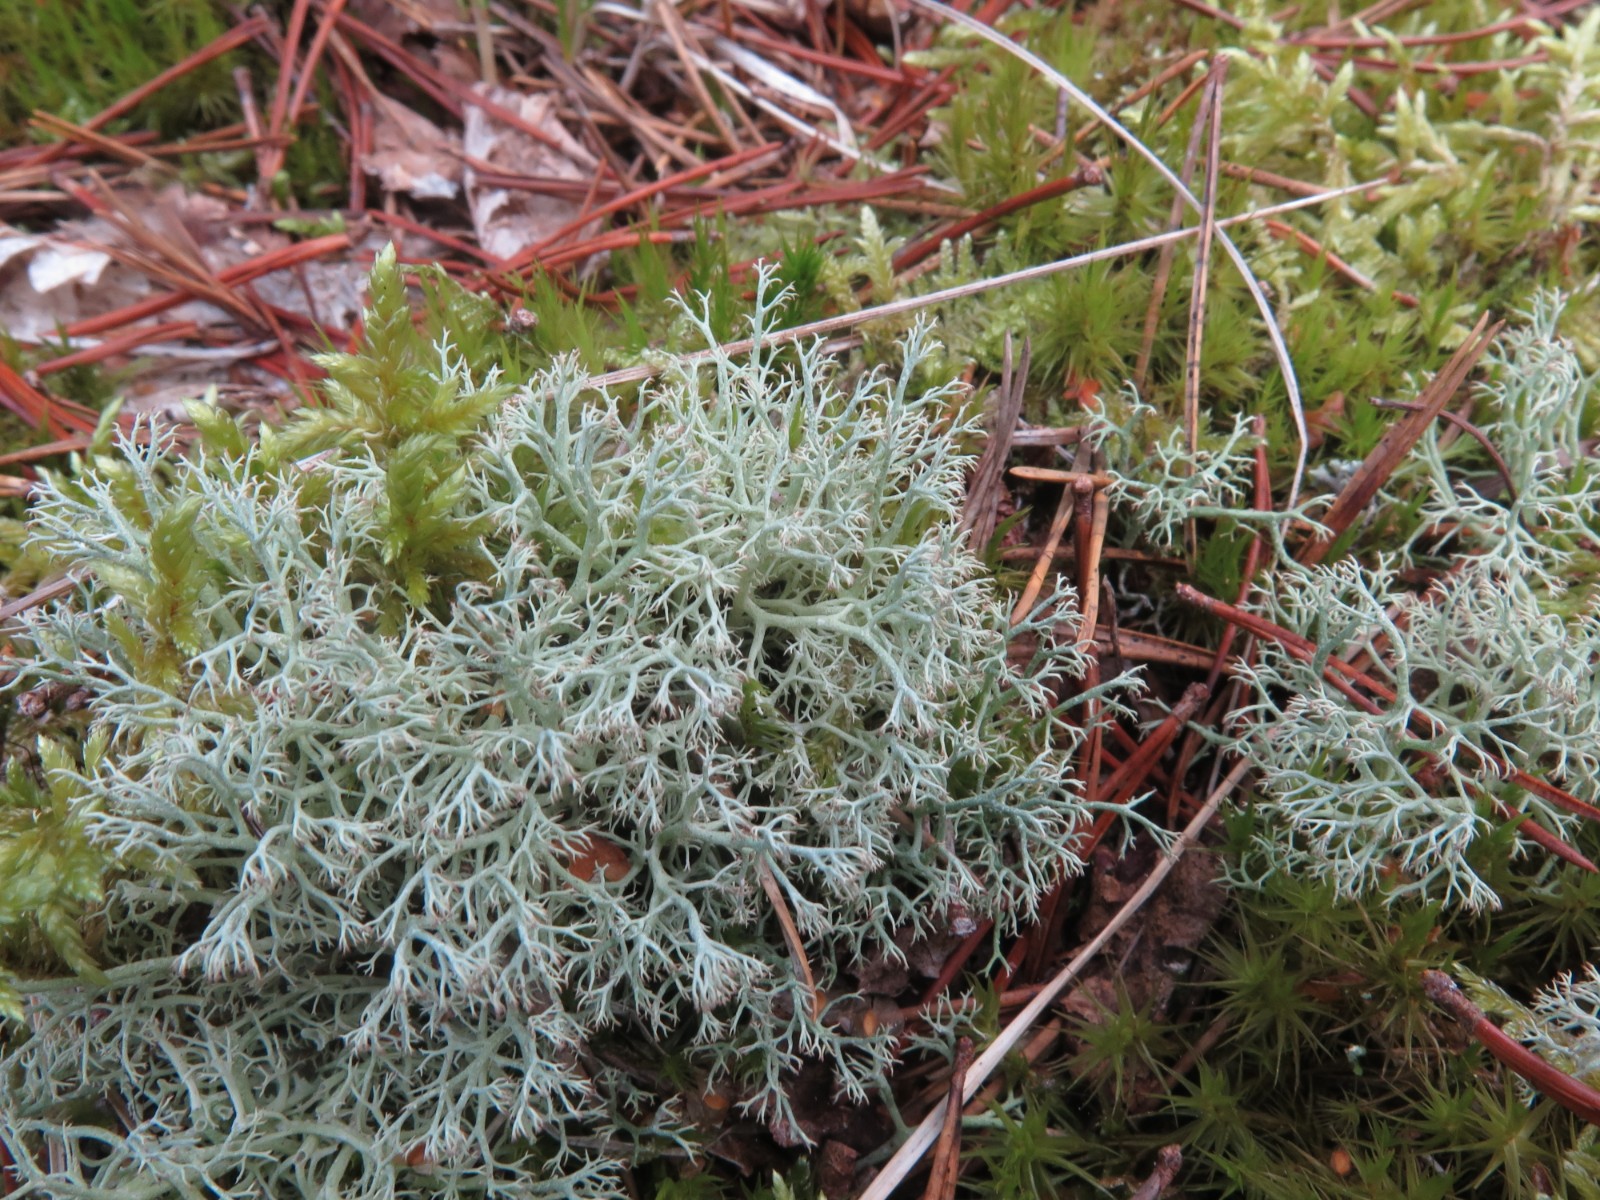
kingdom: Fungi
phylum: Ascomycota
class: Lecanoromycetes
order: Lecanorales
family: Cladoniaceae
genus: Cladonia
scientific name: Cladonia portentosa
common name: hede-rensdyrlav
